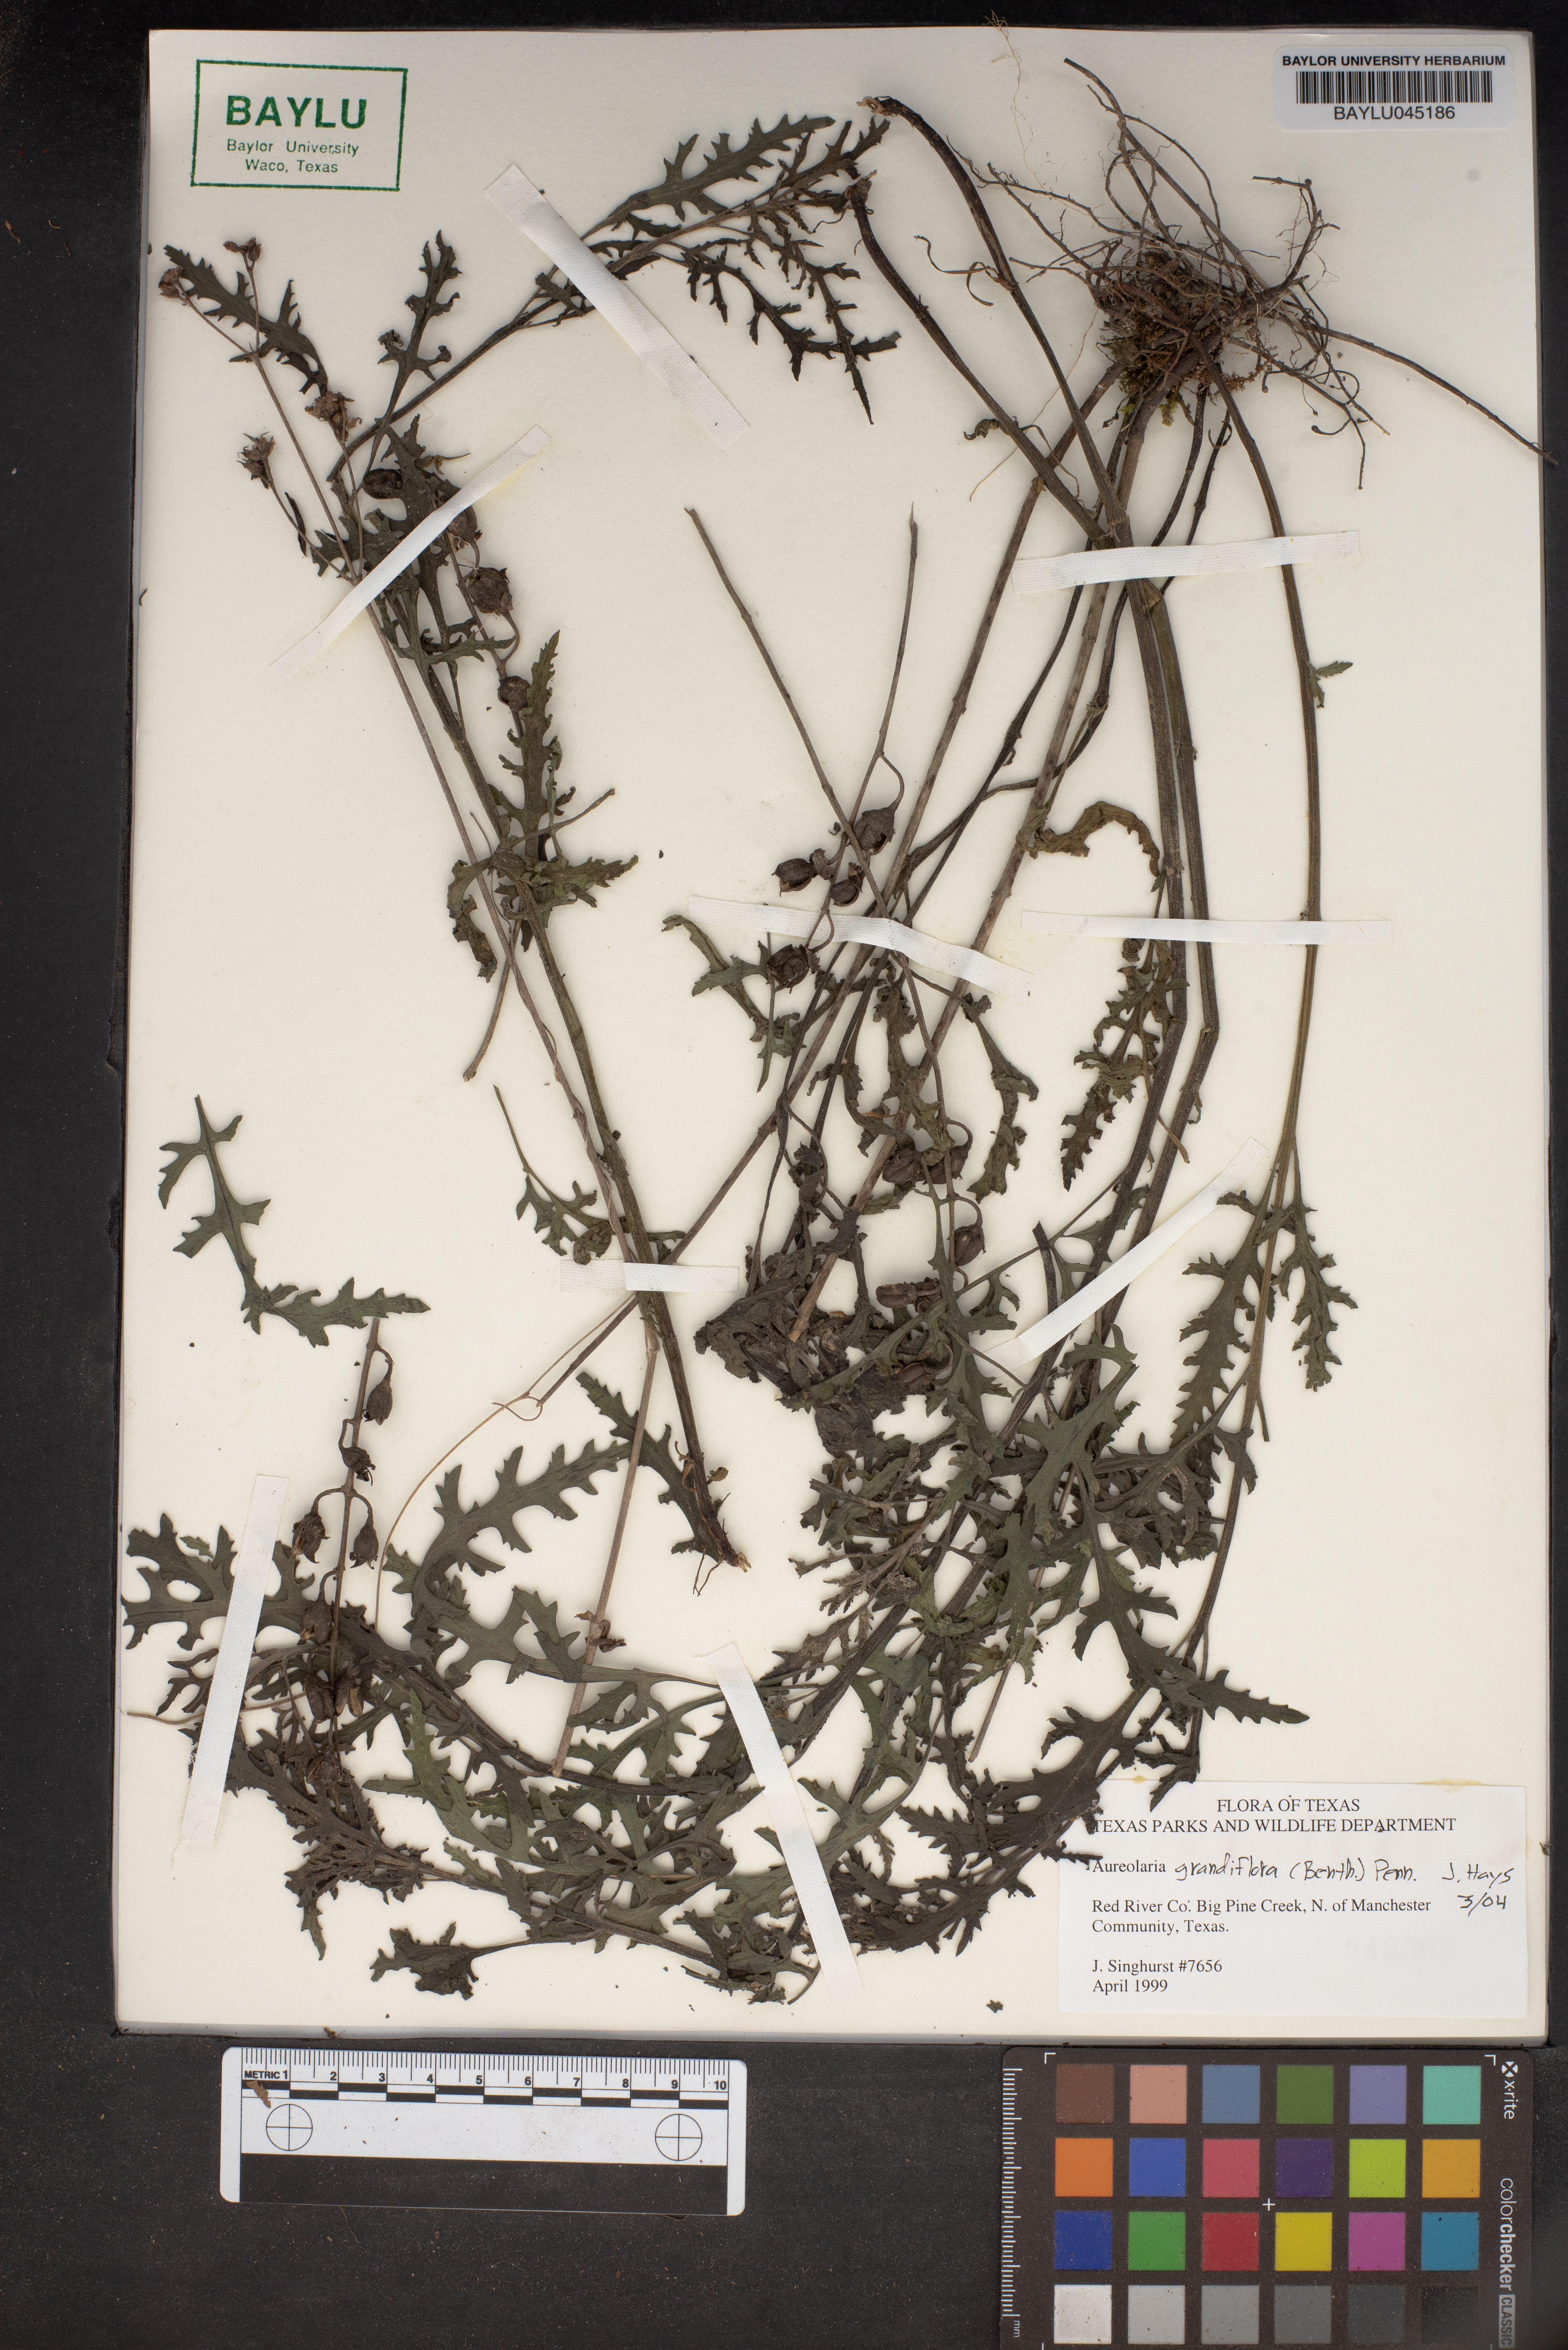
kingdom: Plantae
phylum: Tracheophyta
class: Magnoliopsida
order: Lamiales
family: Orobanchaceae
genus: Aureolaria
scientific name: Aureolaria grandiflora
